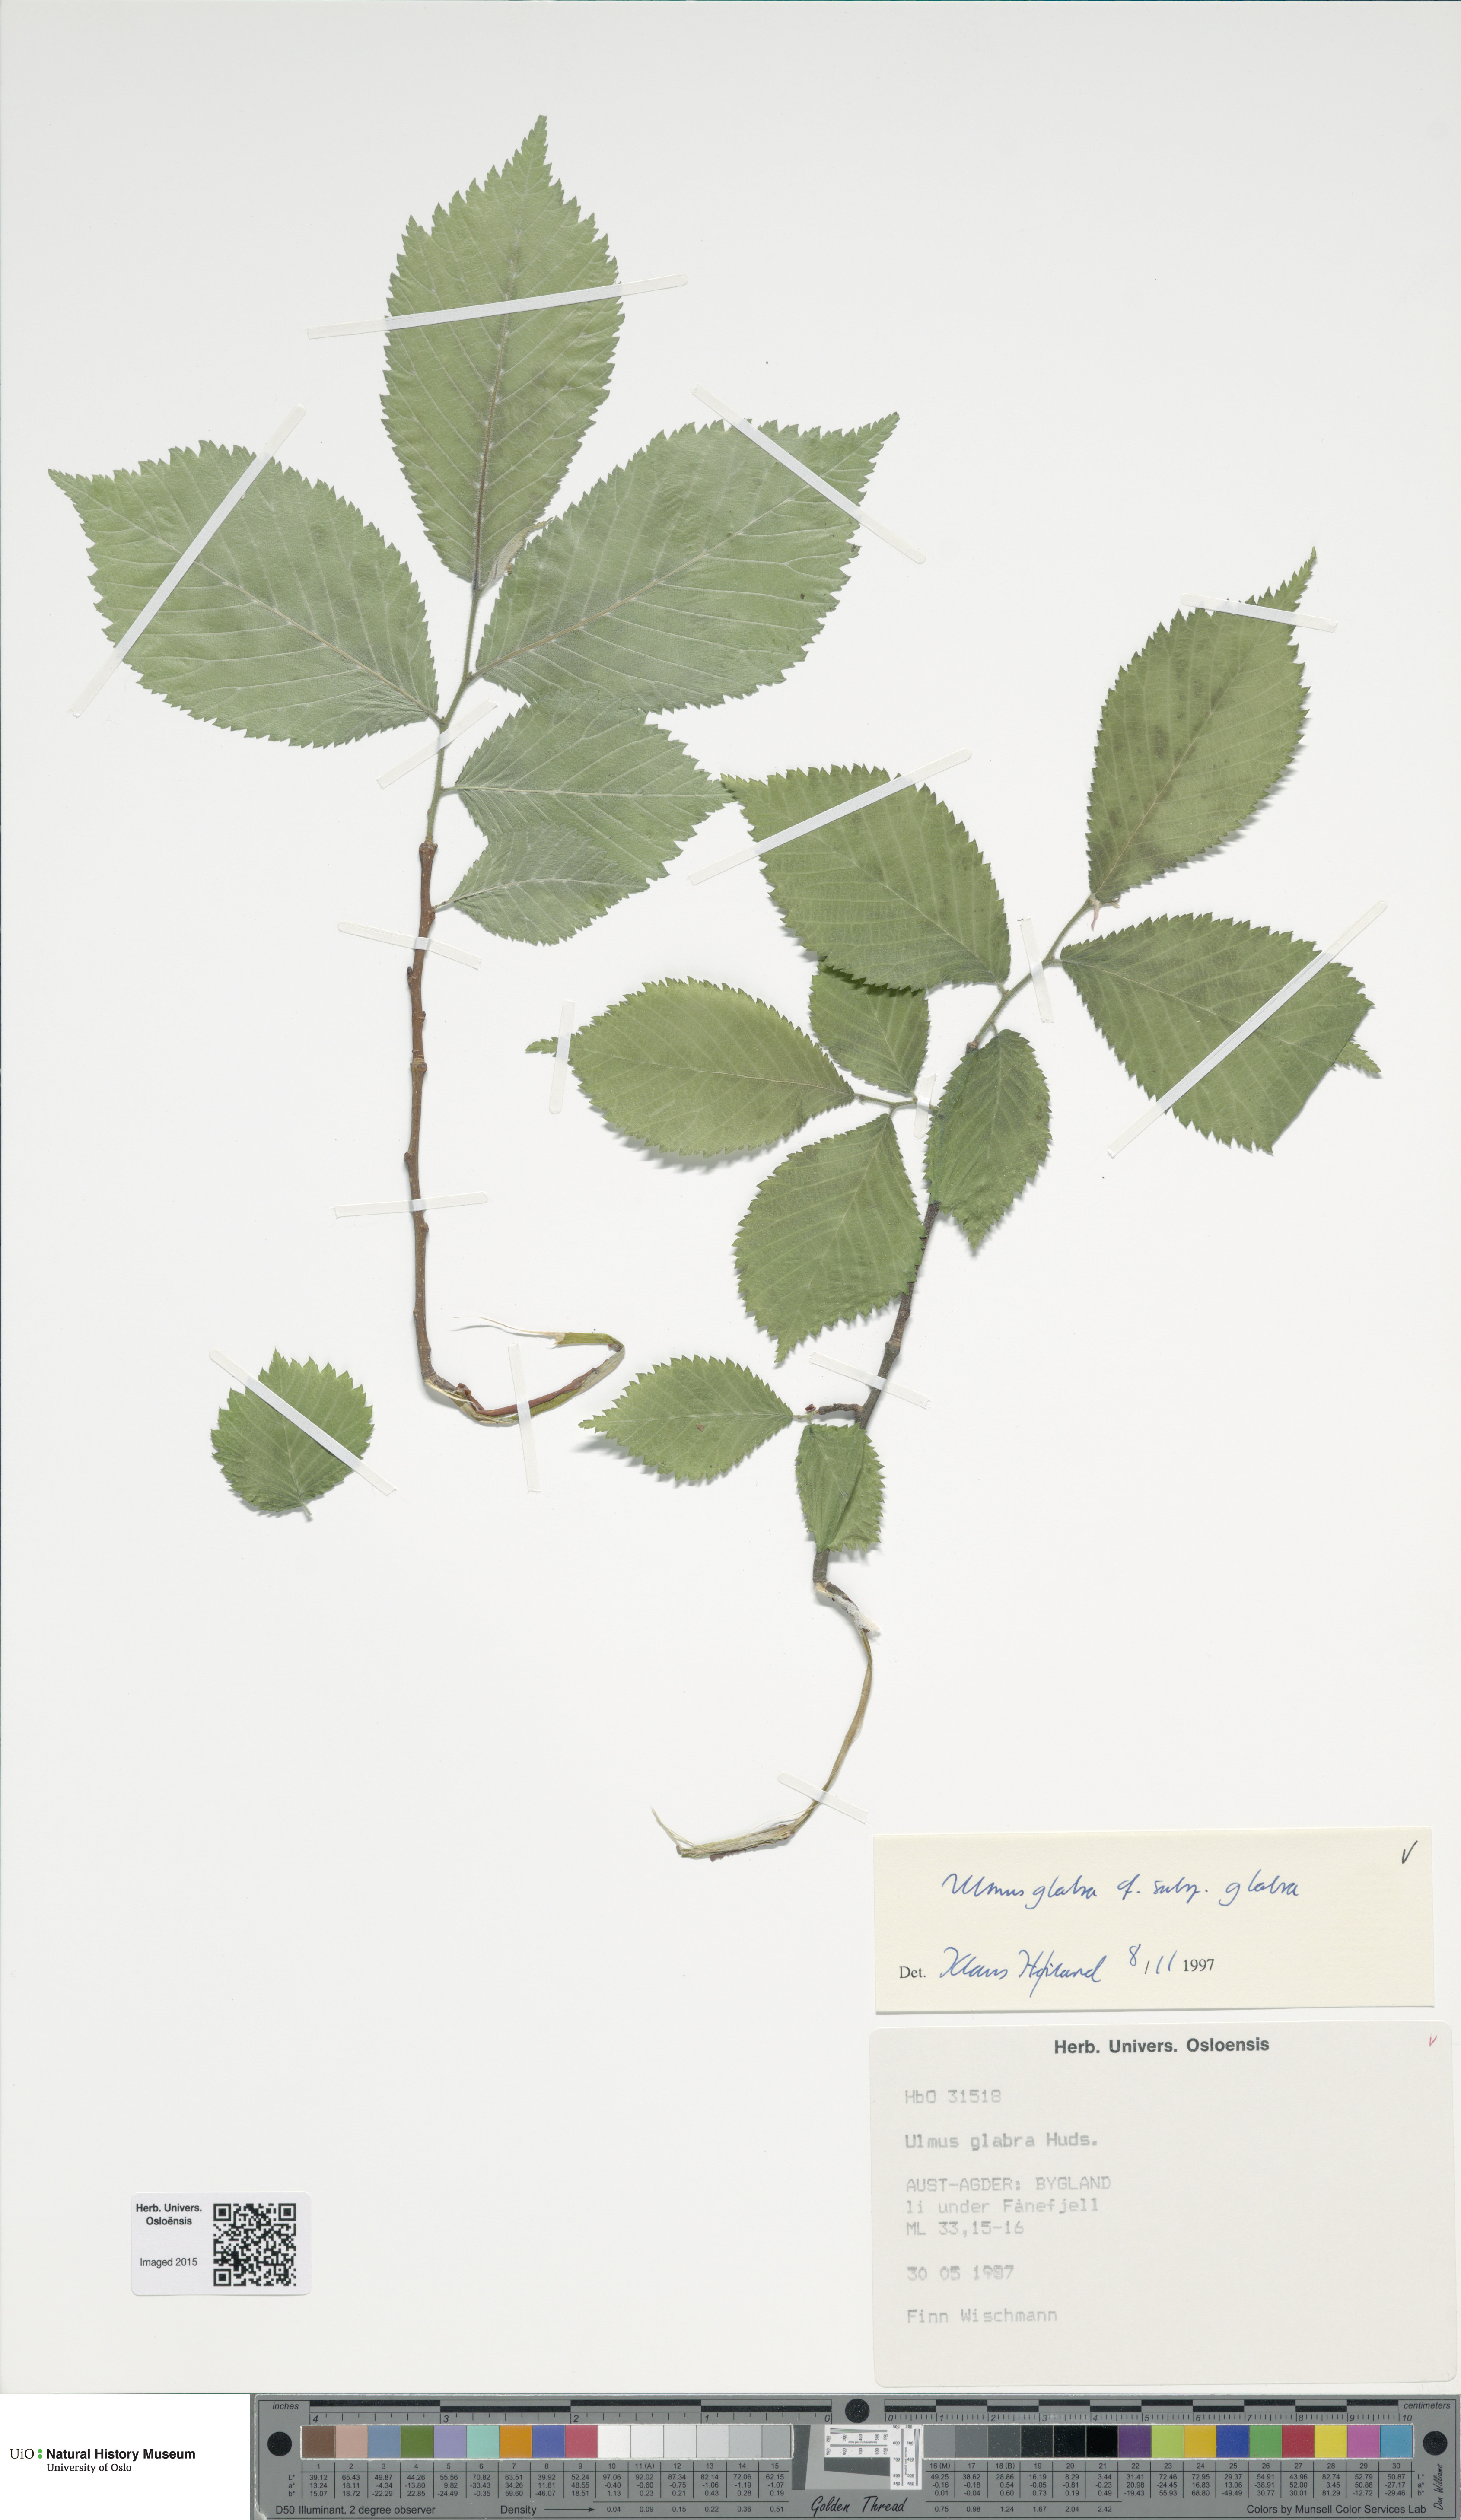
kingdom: Plantae
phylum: Tracheophyta
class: Magnoliopsida
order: Rosales
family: Ulmaceae
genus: Ulmus
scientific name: Ulmus glabra
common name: Wych elm
